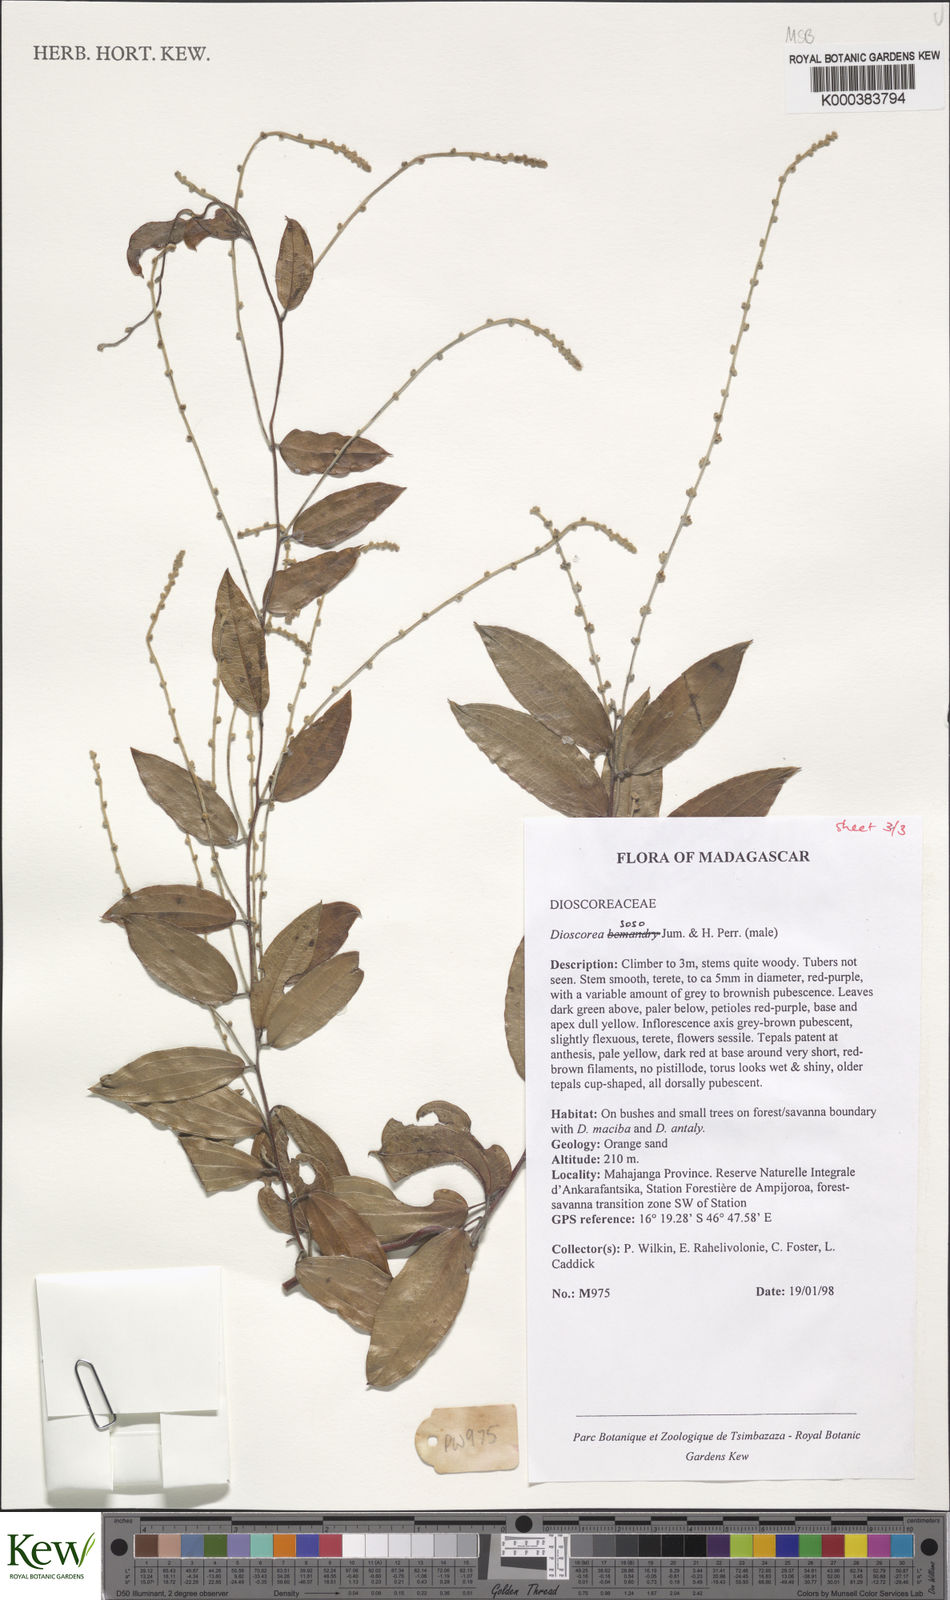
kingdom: Plantae
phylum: Tracheophyta
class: Liliopsida
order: Dioscoreales
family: Dioscoreaceae
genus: Dioscorea
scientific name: Dioscorea
